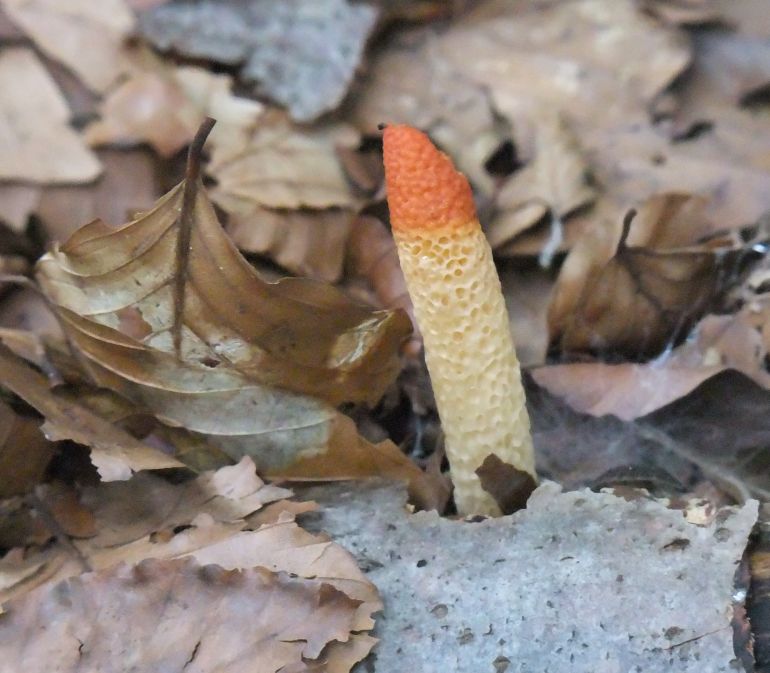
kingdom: Fungi
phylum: Basidiomycota
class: Agaricomycetes
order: Phallales
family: Phallaceae
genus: Mutinus
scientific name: Mutinus caninus
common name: hunde-stinksvamp
